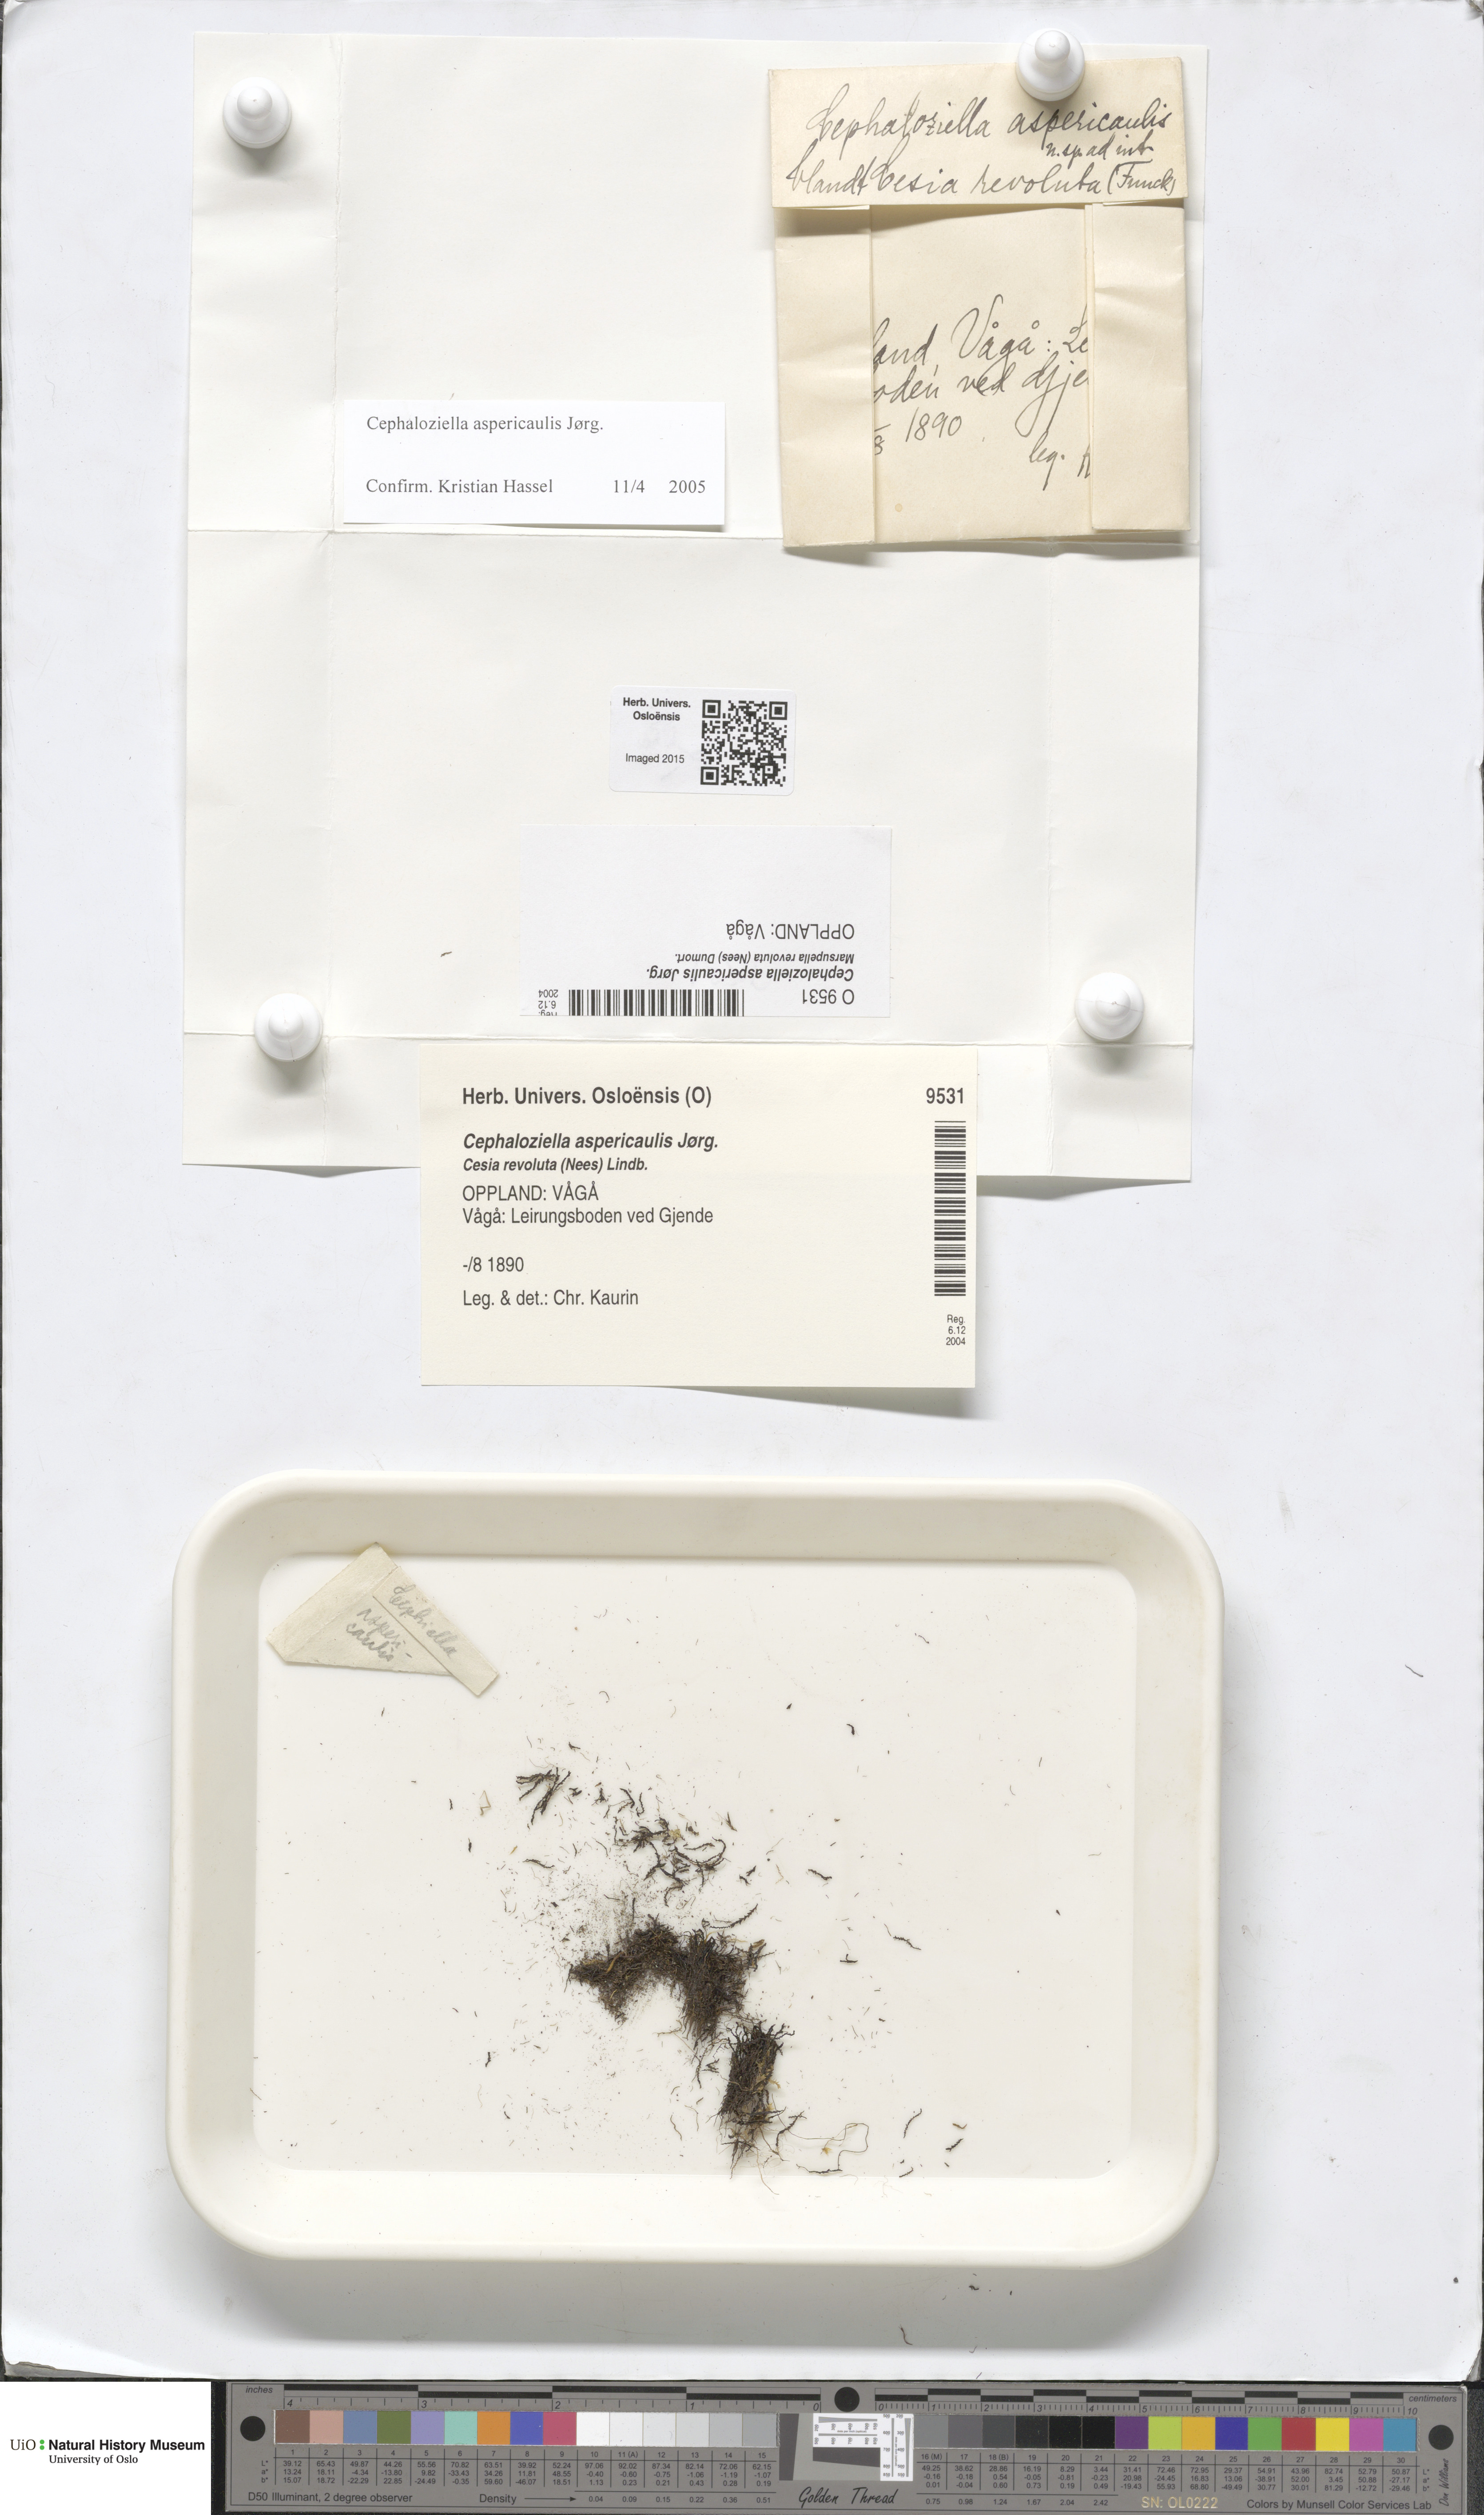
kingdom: Plantae
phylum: Marchantiophyta
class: Jungermanniopsida
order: Jungermanniales
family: Cephaloziellaceae
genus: Cephaloziella
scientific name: Cephaloziella aspericaulis
